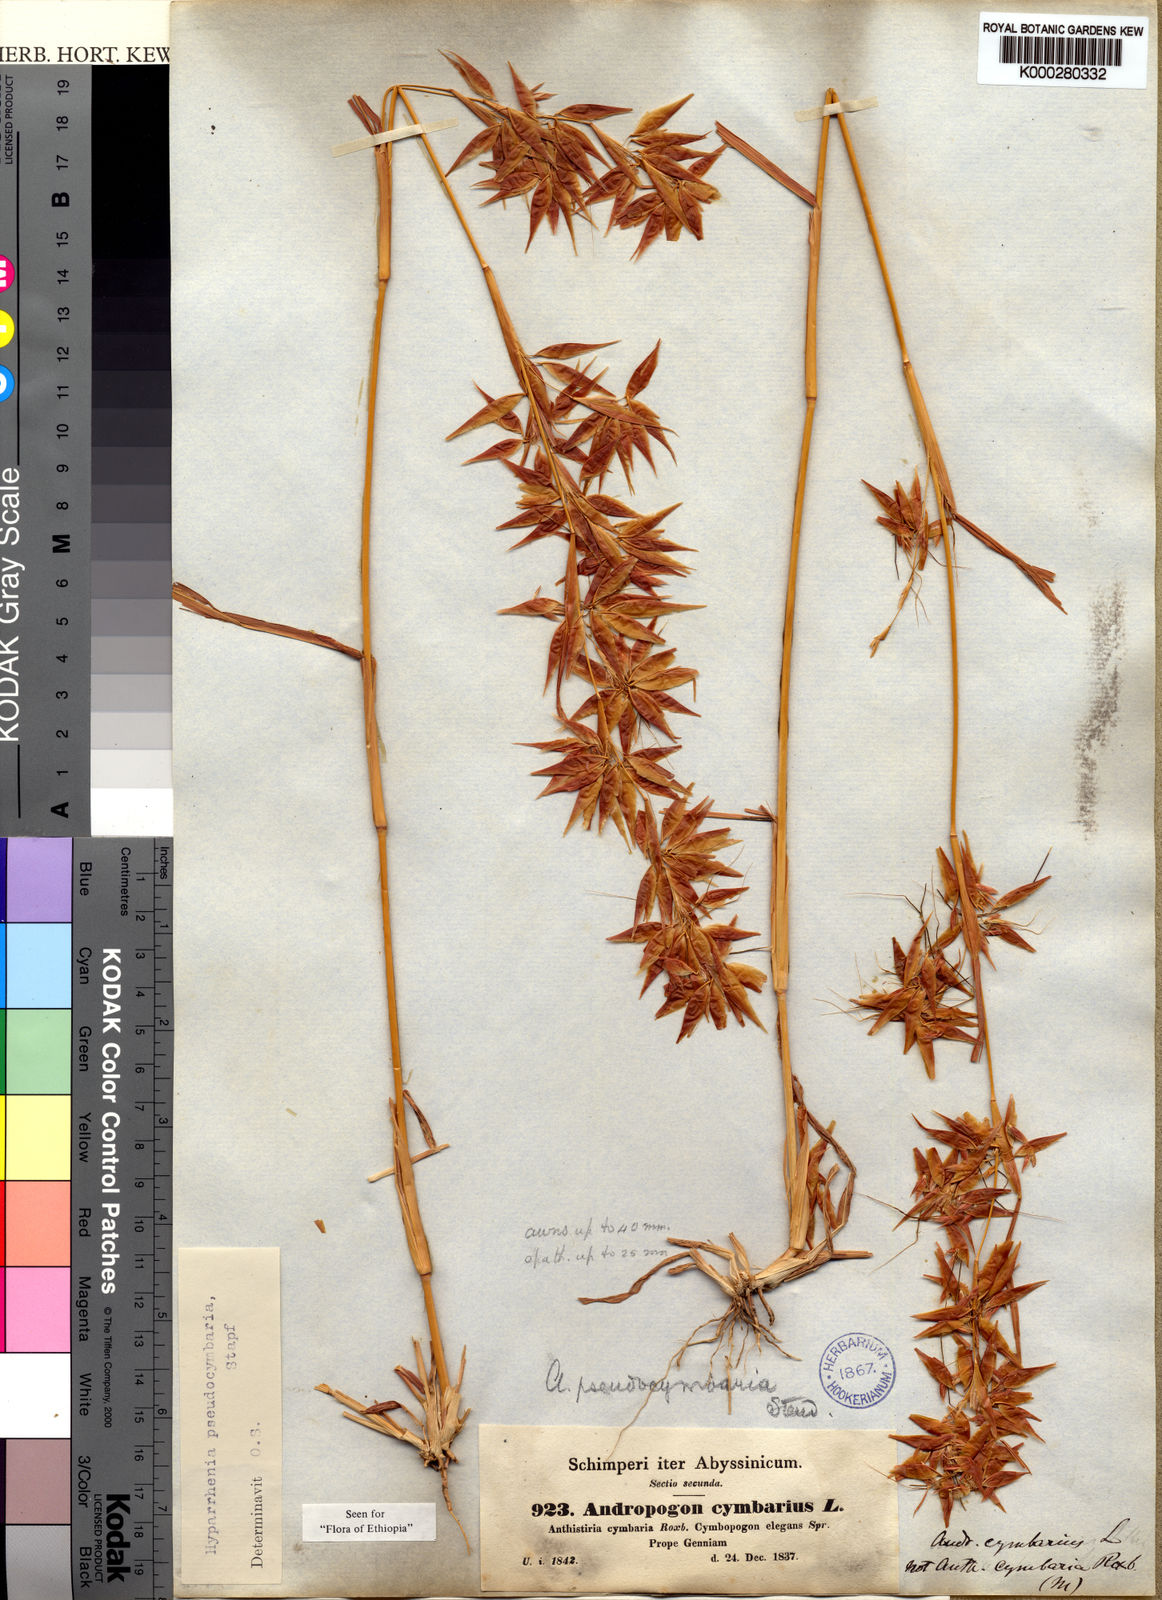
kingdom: Plantae
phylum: Tracheophyta
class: Liliopsida
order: Poales
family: Poaceae
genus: Hyparrhenia
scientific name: Hyparrhenia
